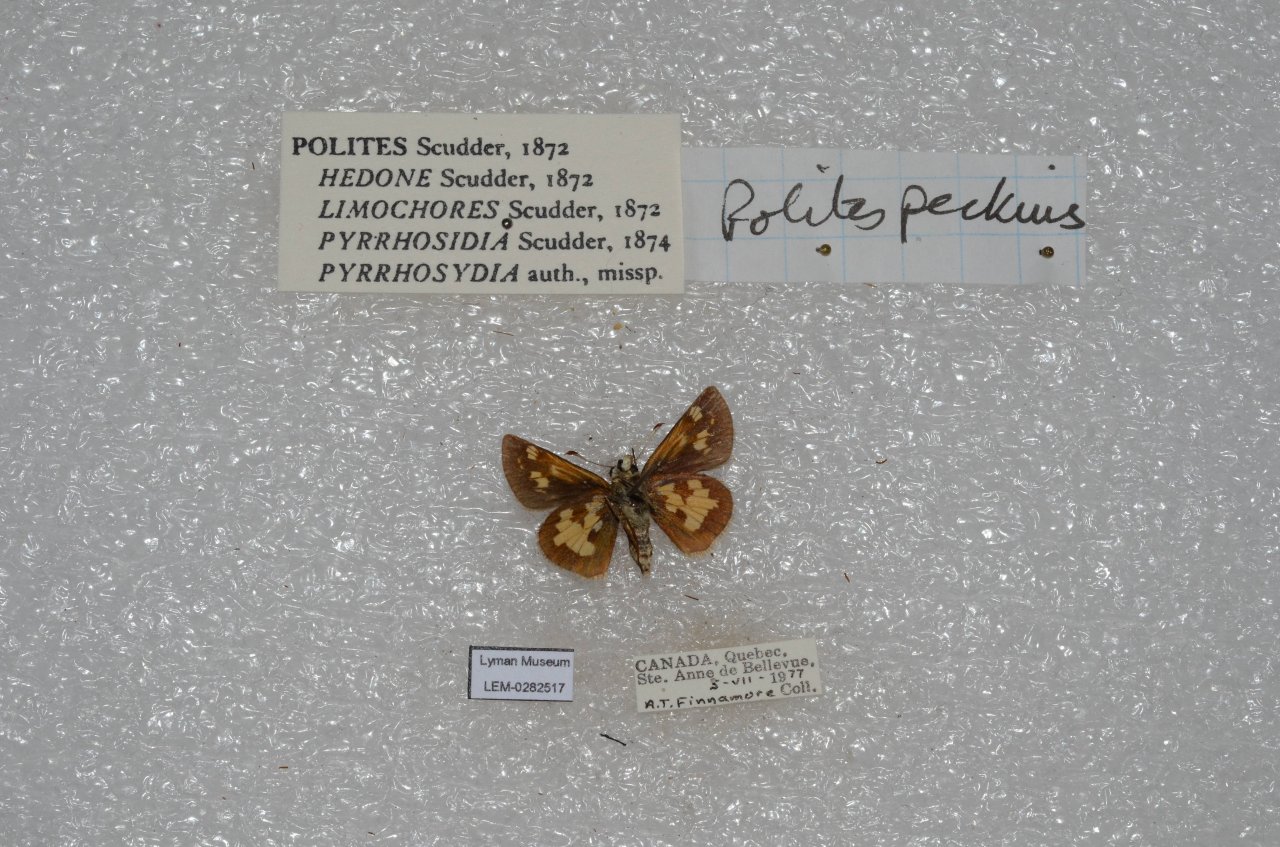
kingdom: Animalia
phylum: Arthropoda
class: Insecta
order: Lepidoptera
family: Hesperiidae
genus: Polites
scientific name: Polites coras
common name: Peck's Skipper
